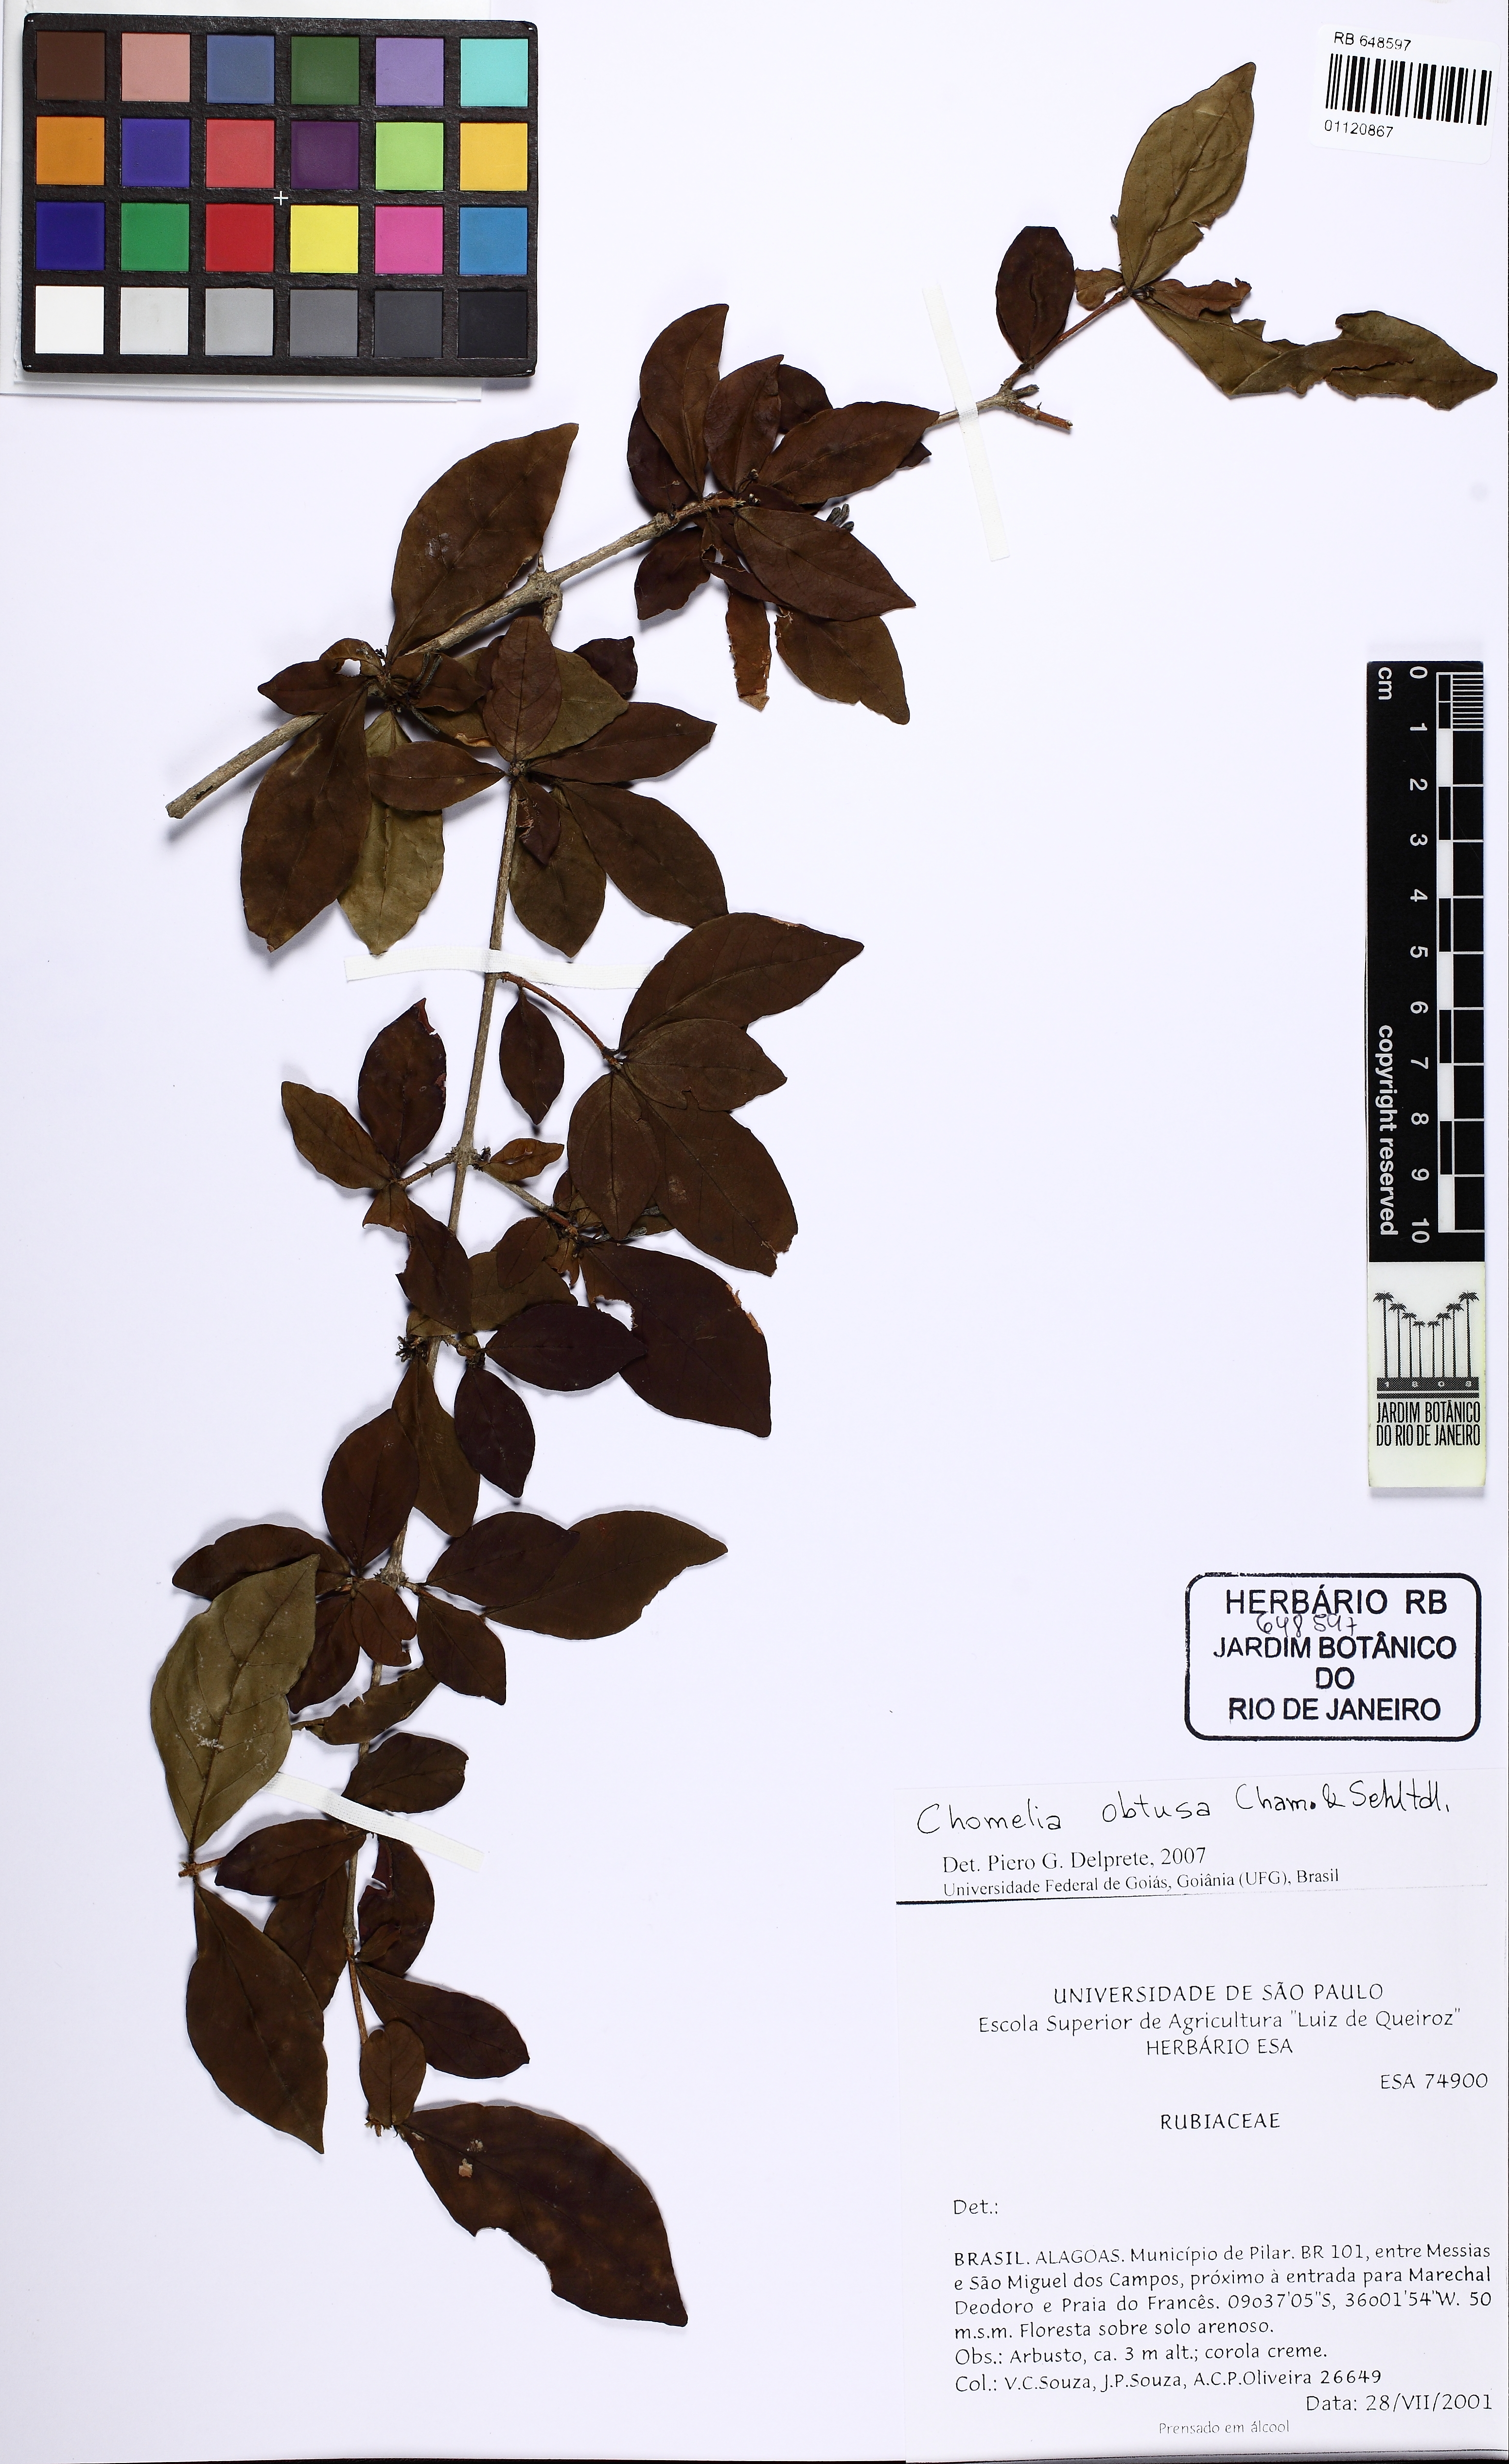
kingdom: Plantae
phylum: Tracheophyta
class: Magnoliopsida
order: Gentianales
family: Rubiaceae
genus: Chomelia
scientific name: Chomelia obtusa
